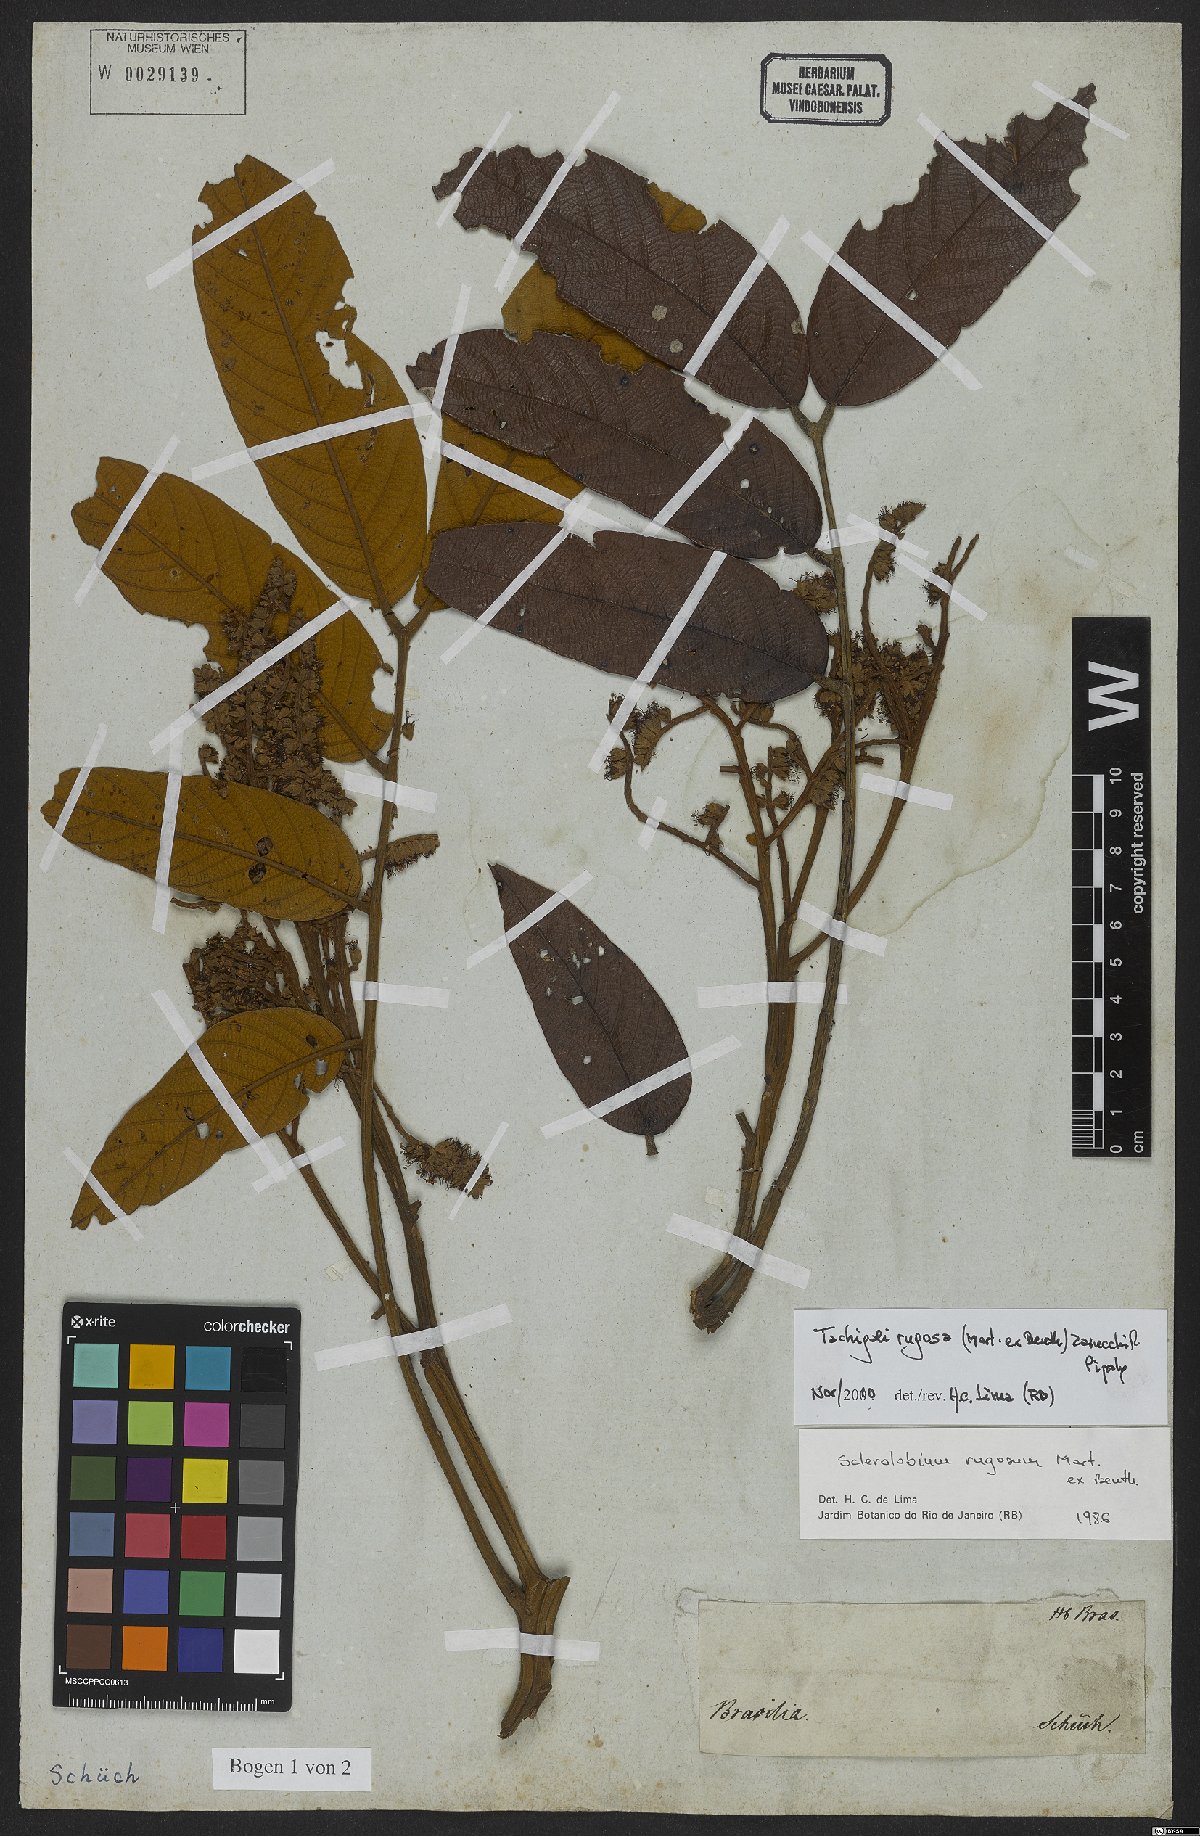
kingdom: Plantae
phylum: Tracheophyta
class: Magnoliopsida
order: Fabales
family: Fabaceae
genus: Tachigali
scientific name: Tachigali rugosa
